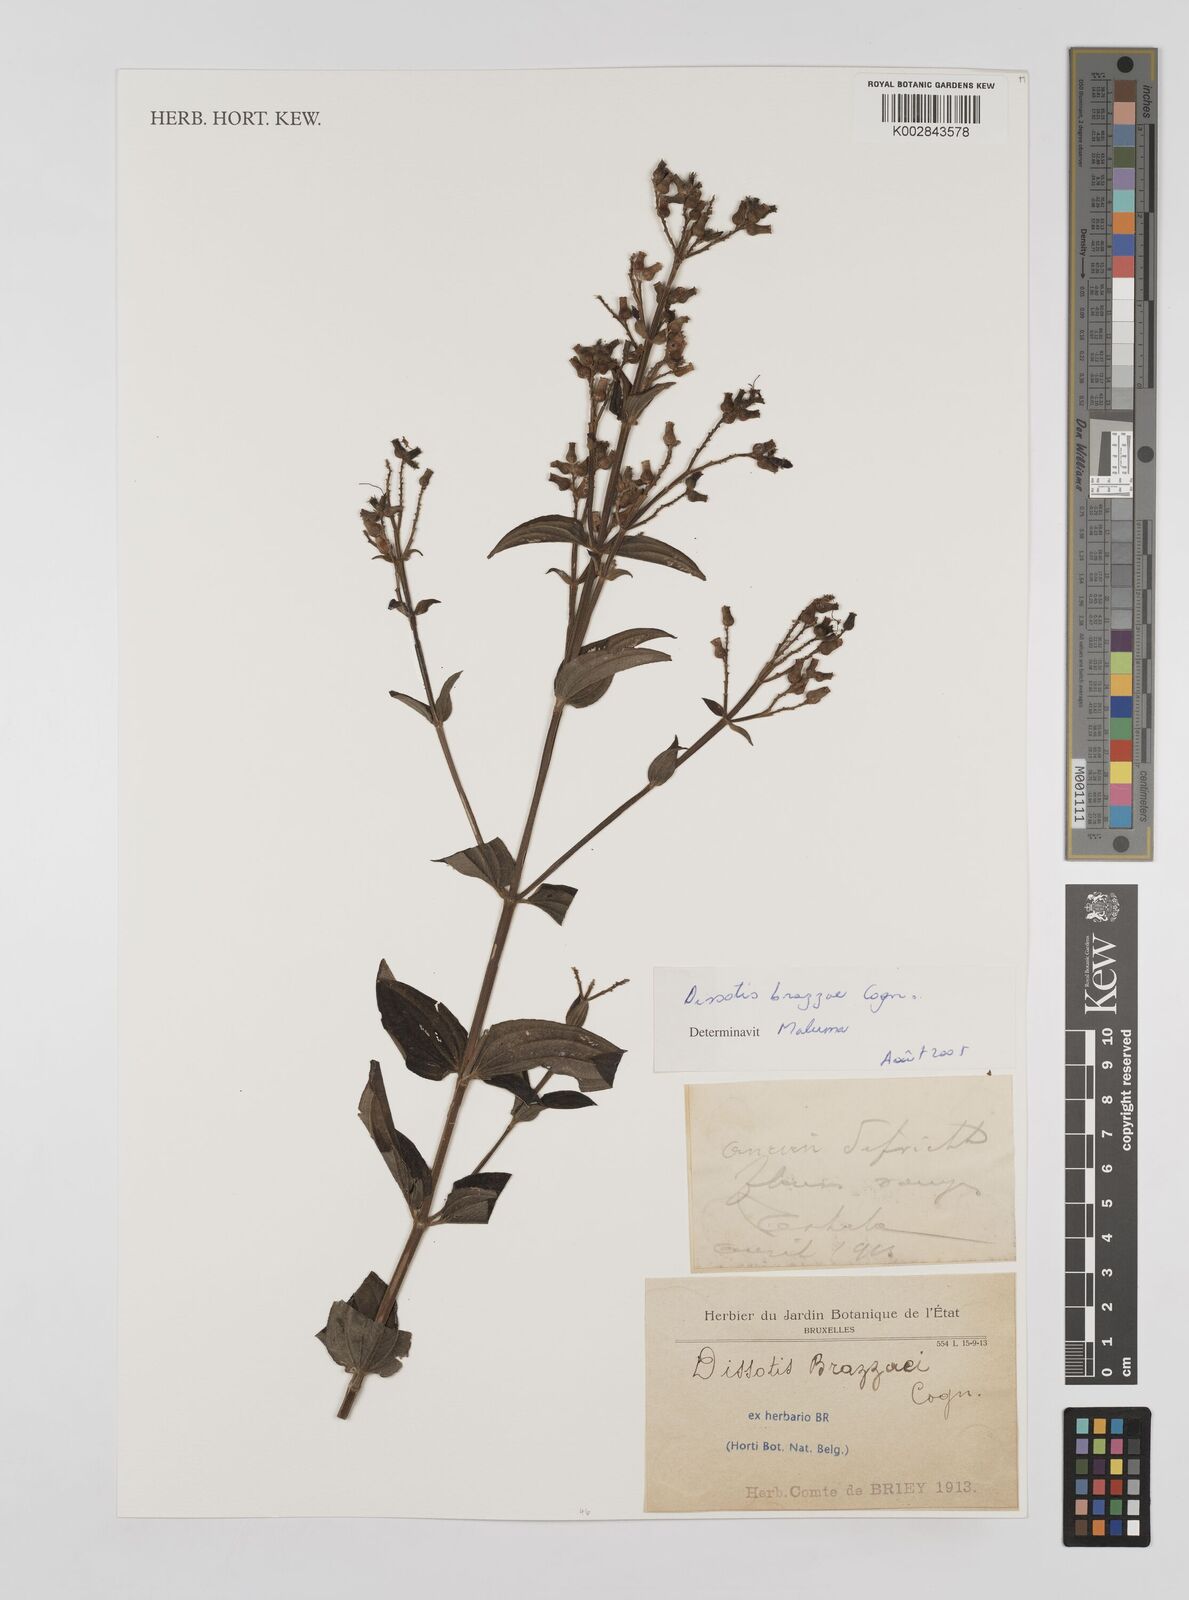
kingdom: Plantae
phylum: Tracheophyta
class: Magnoliopsida
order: Myrtales
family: Melastomataceae
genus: Dupineta
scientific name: Dupineta brazzae
